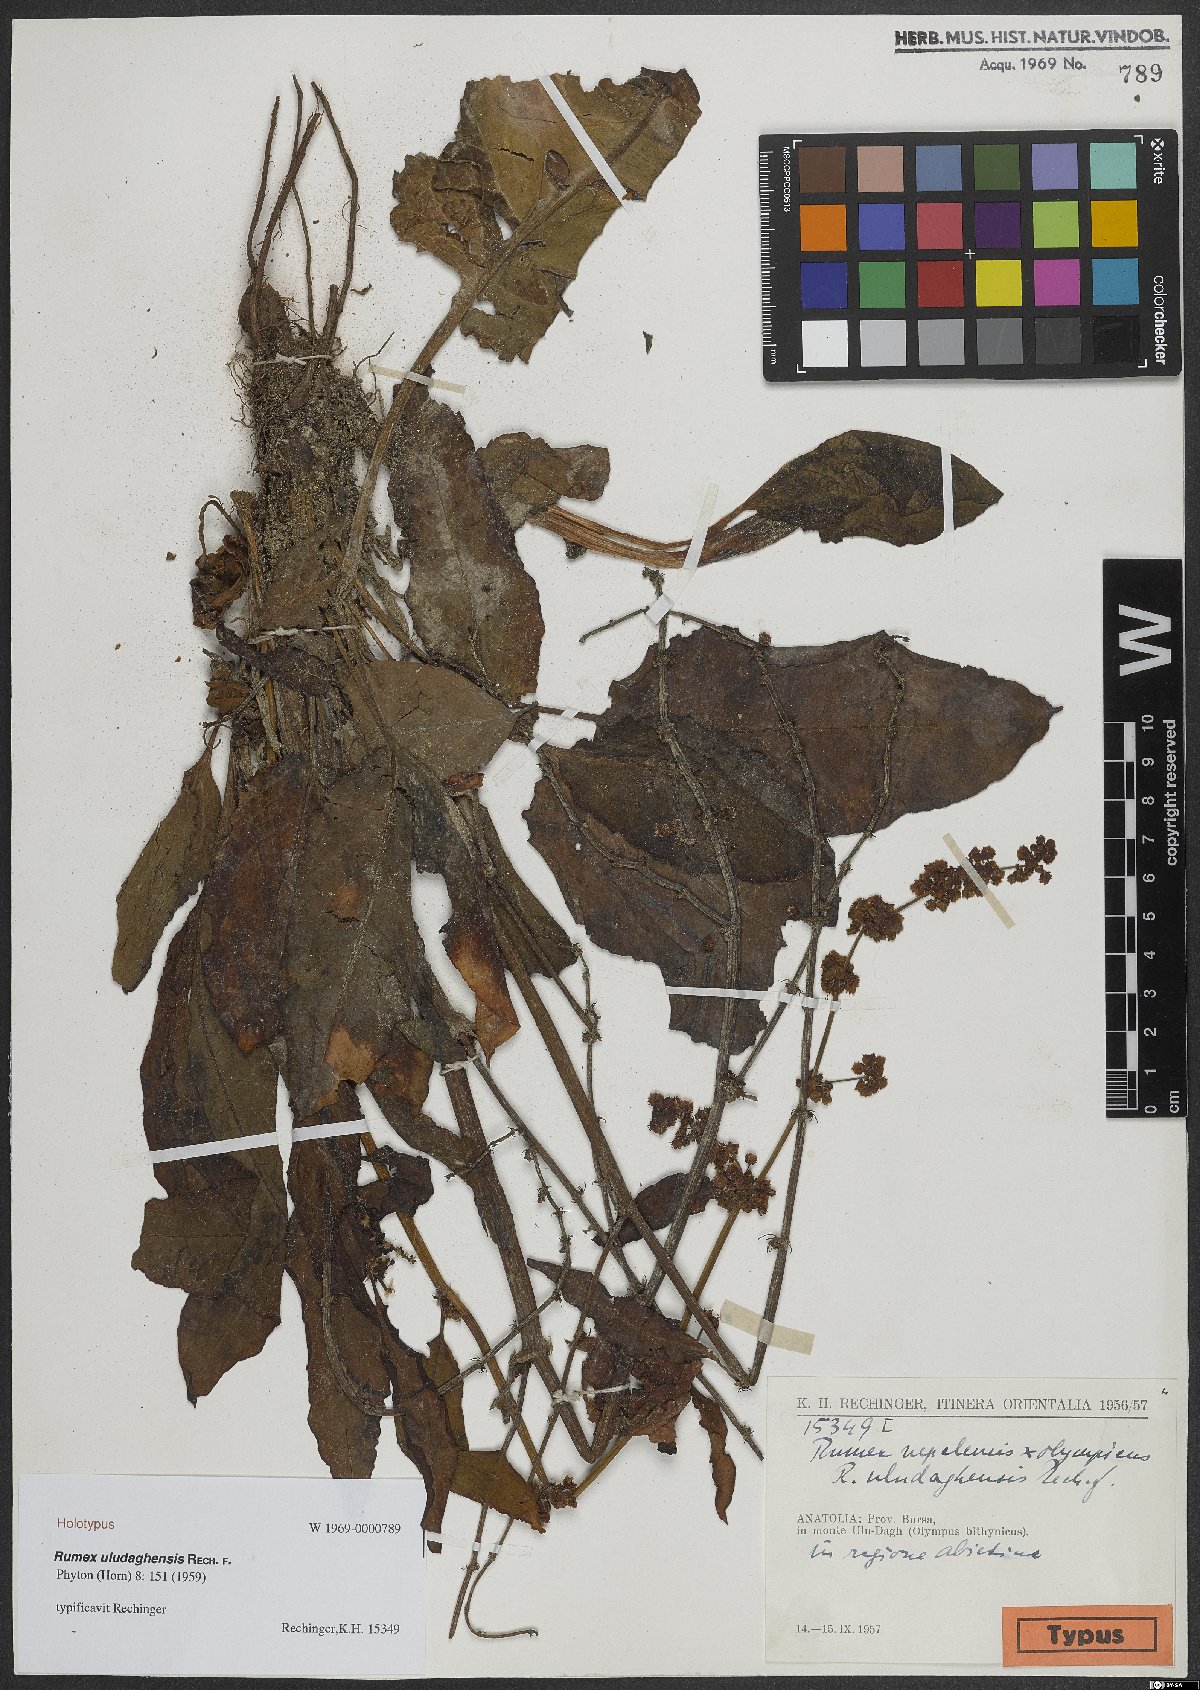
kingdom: Plantae
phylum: Tracheophyta
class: Magnoliopsida
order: Caryophyllales
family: Polygonaceae
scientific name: Polygonaceae
